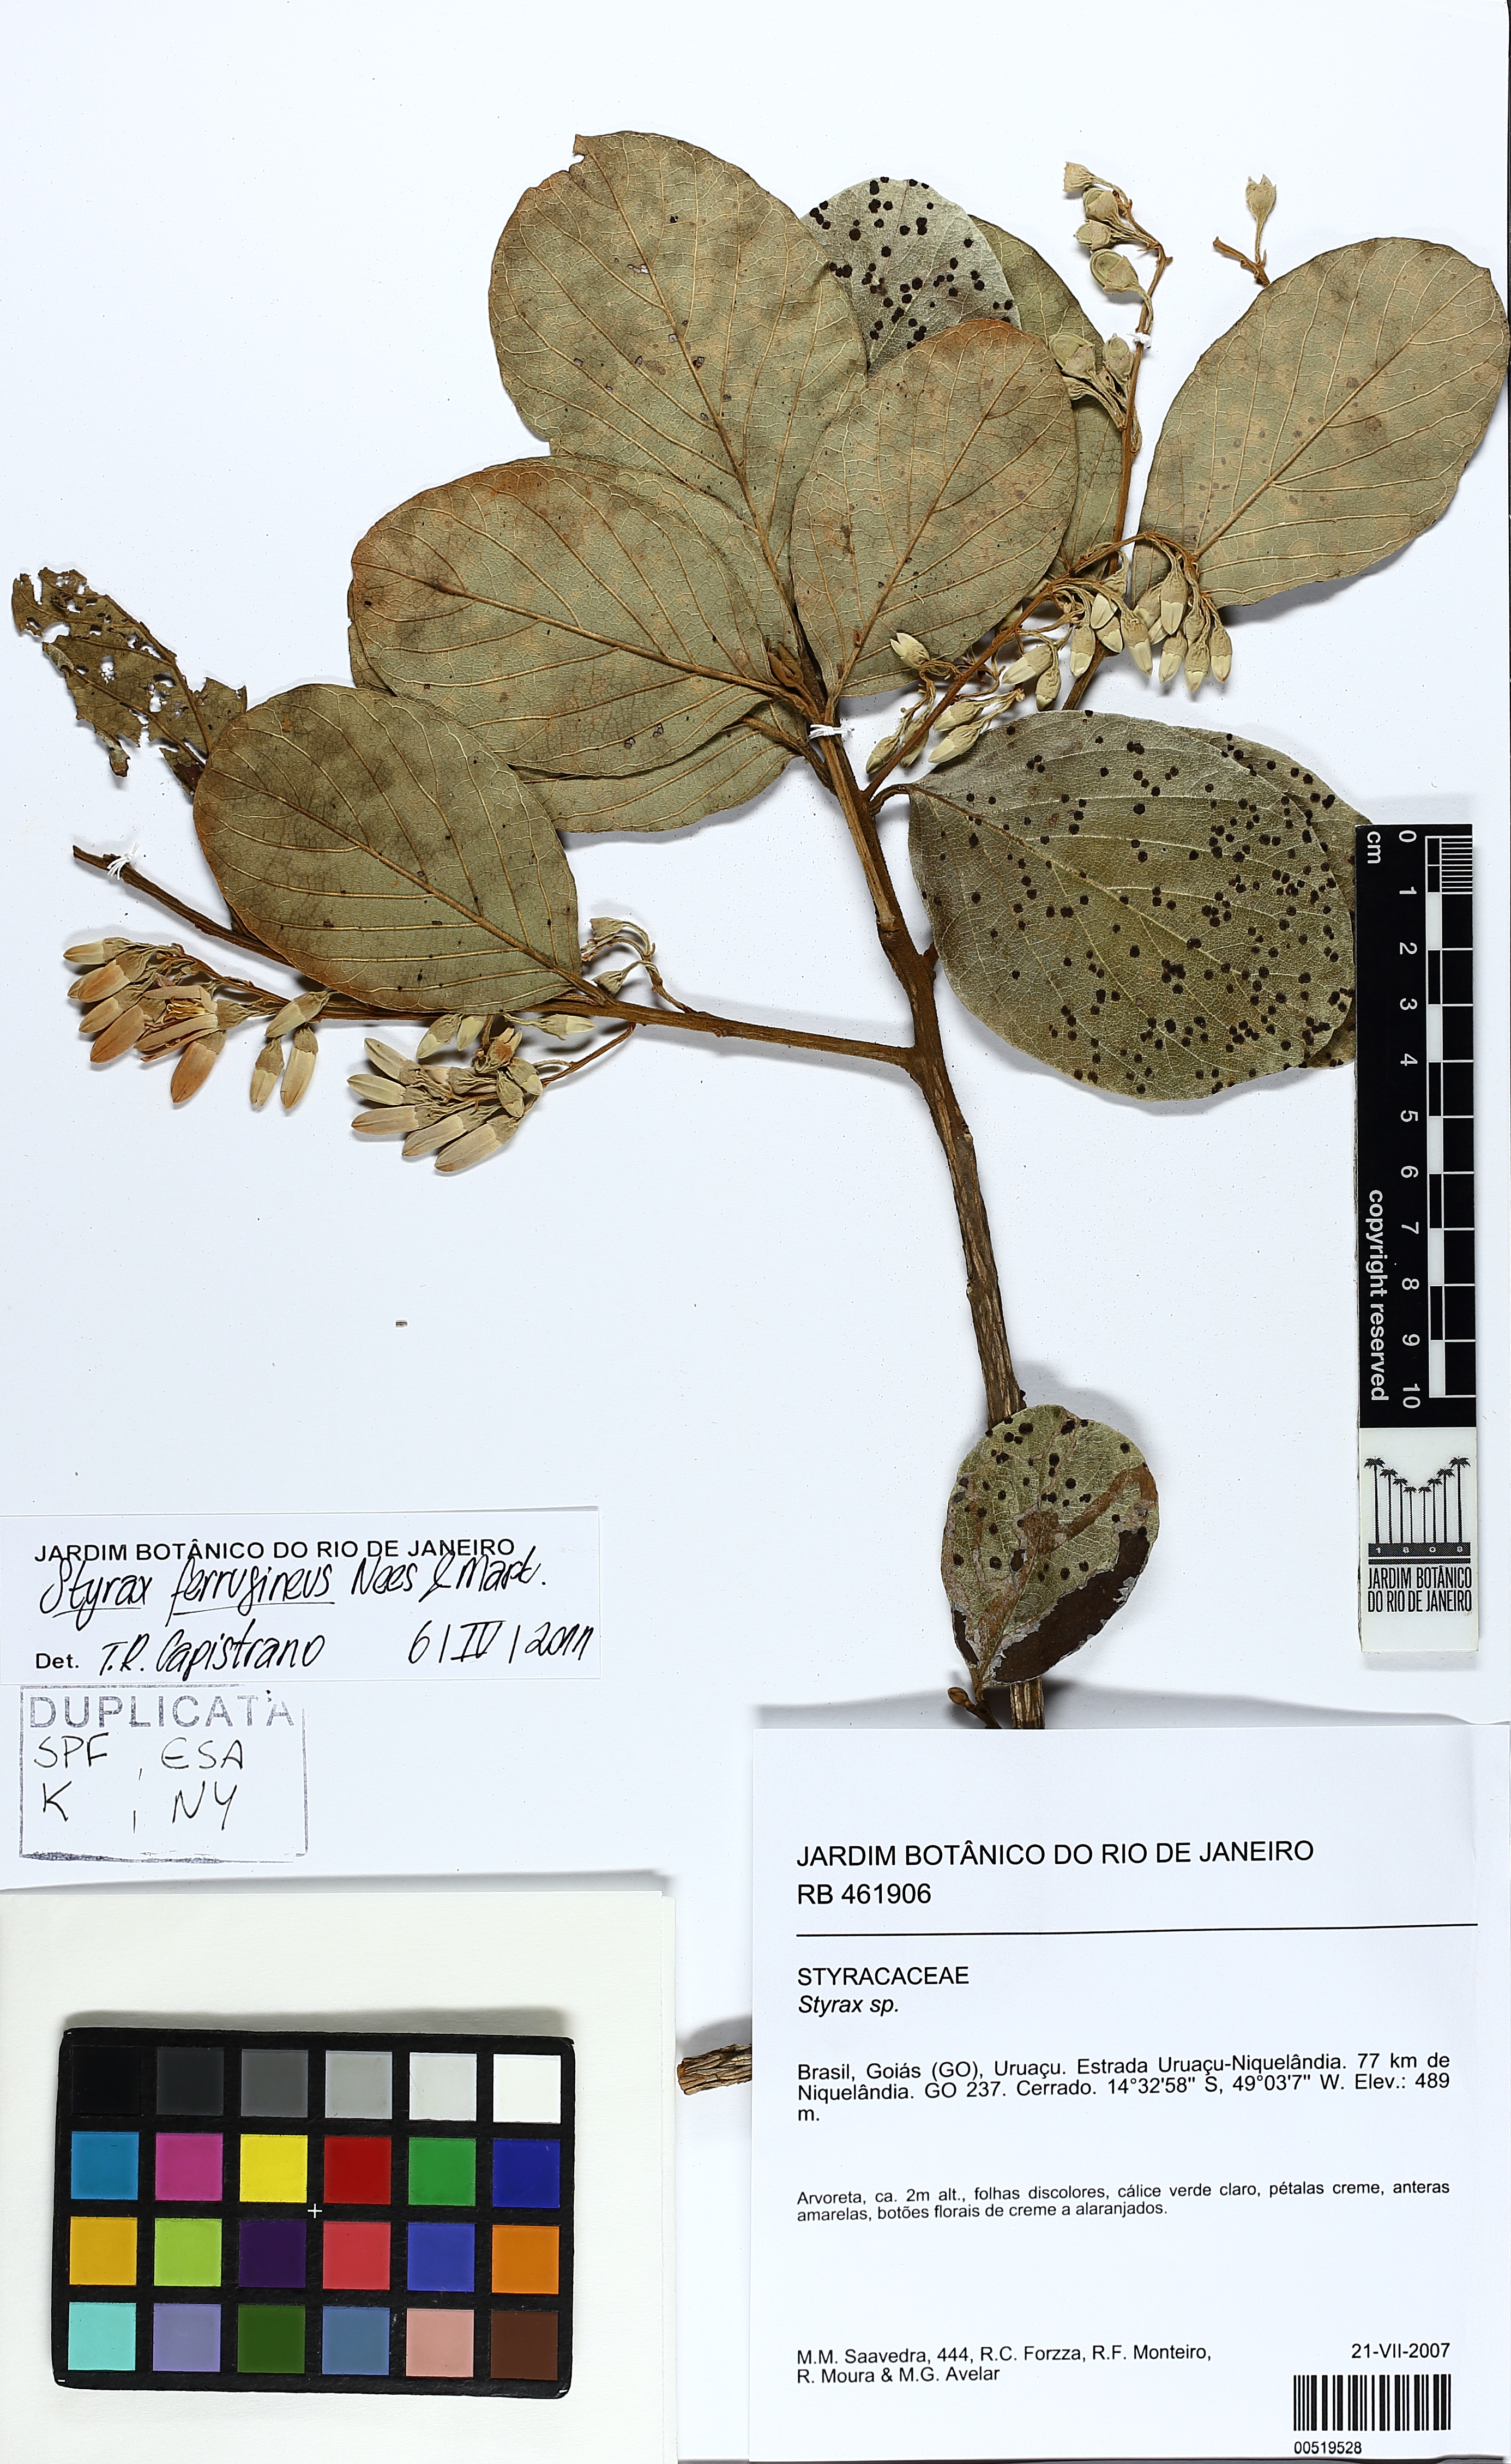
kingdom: Plantae
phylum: Tracheophyta
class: Magnoliopsida
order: Ericales
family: Styracaceae
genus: Styrax
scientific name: Styrax ferrugineus
